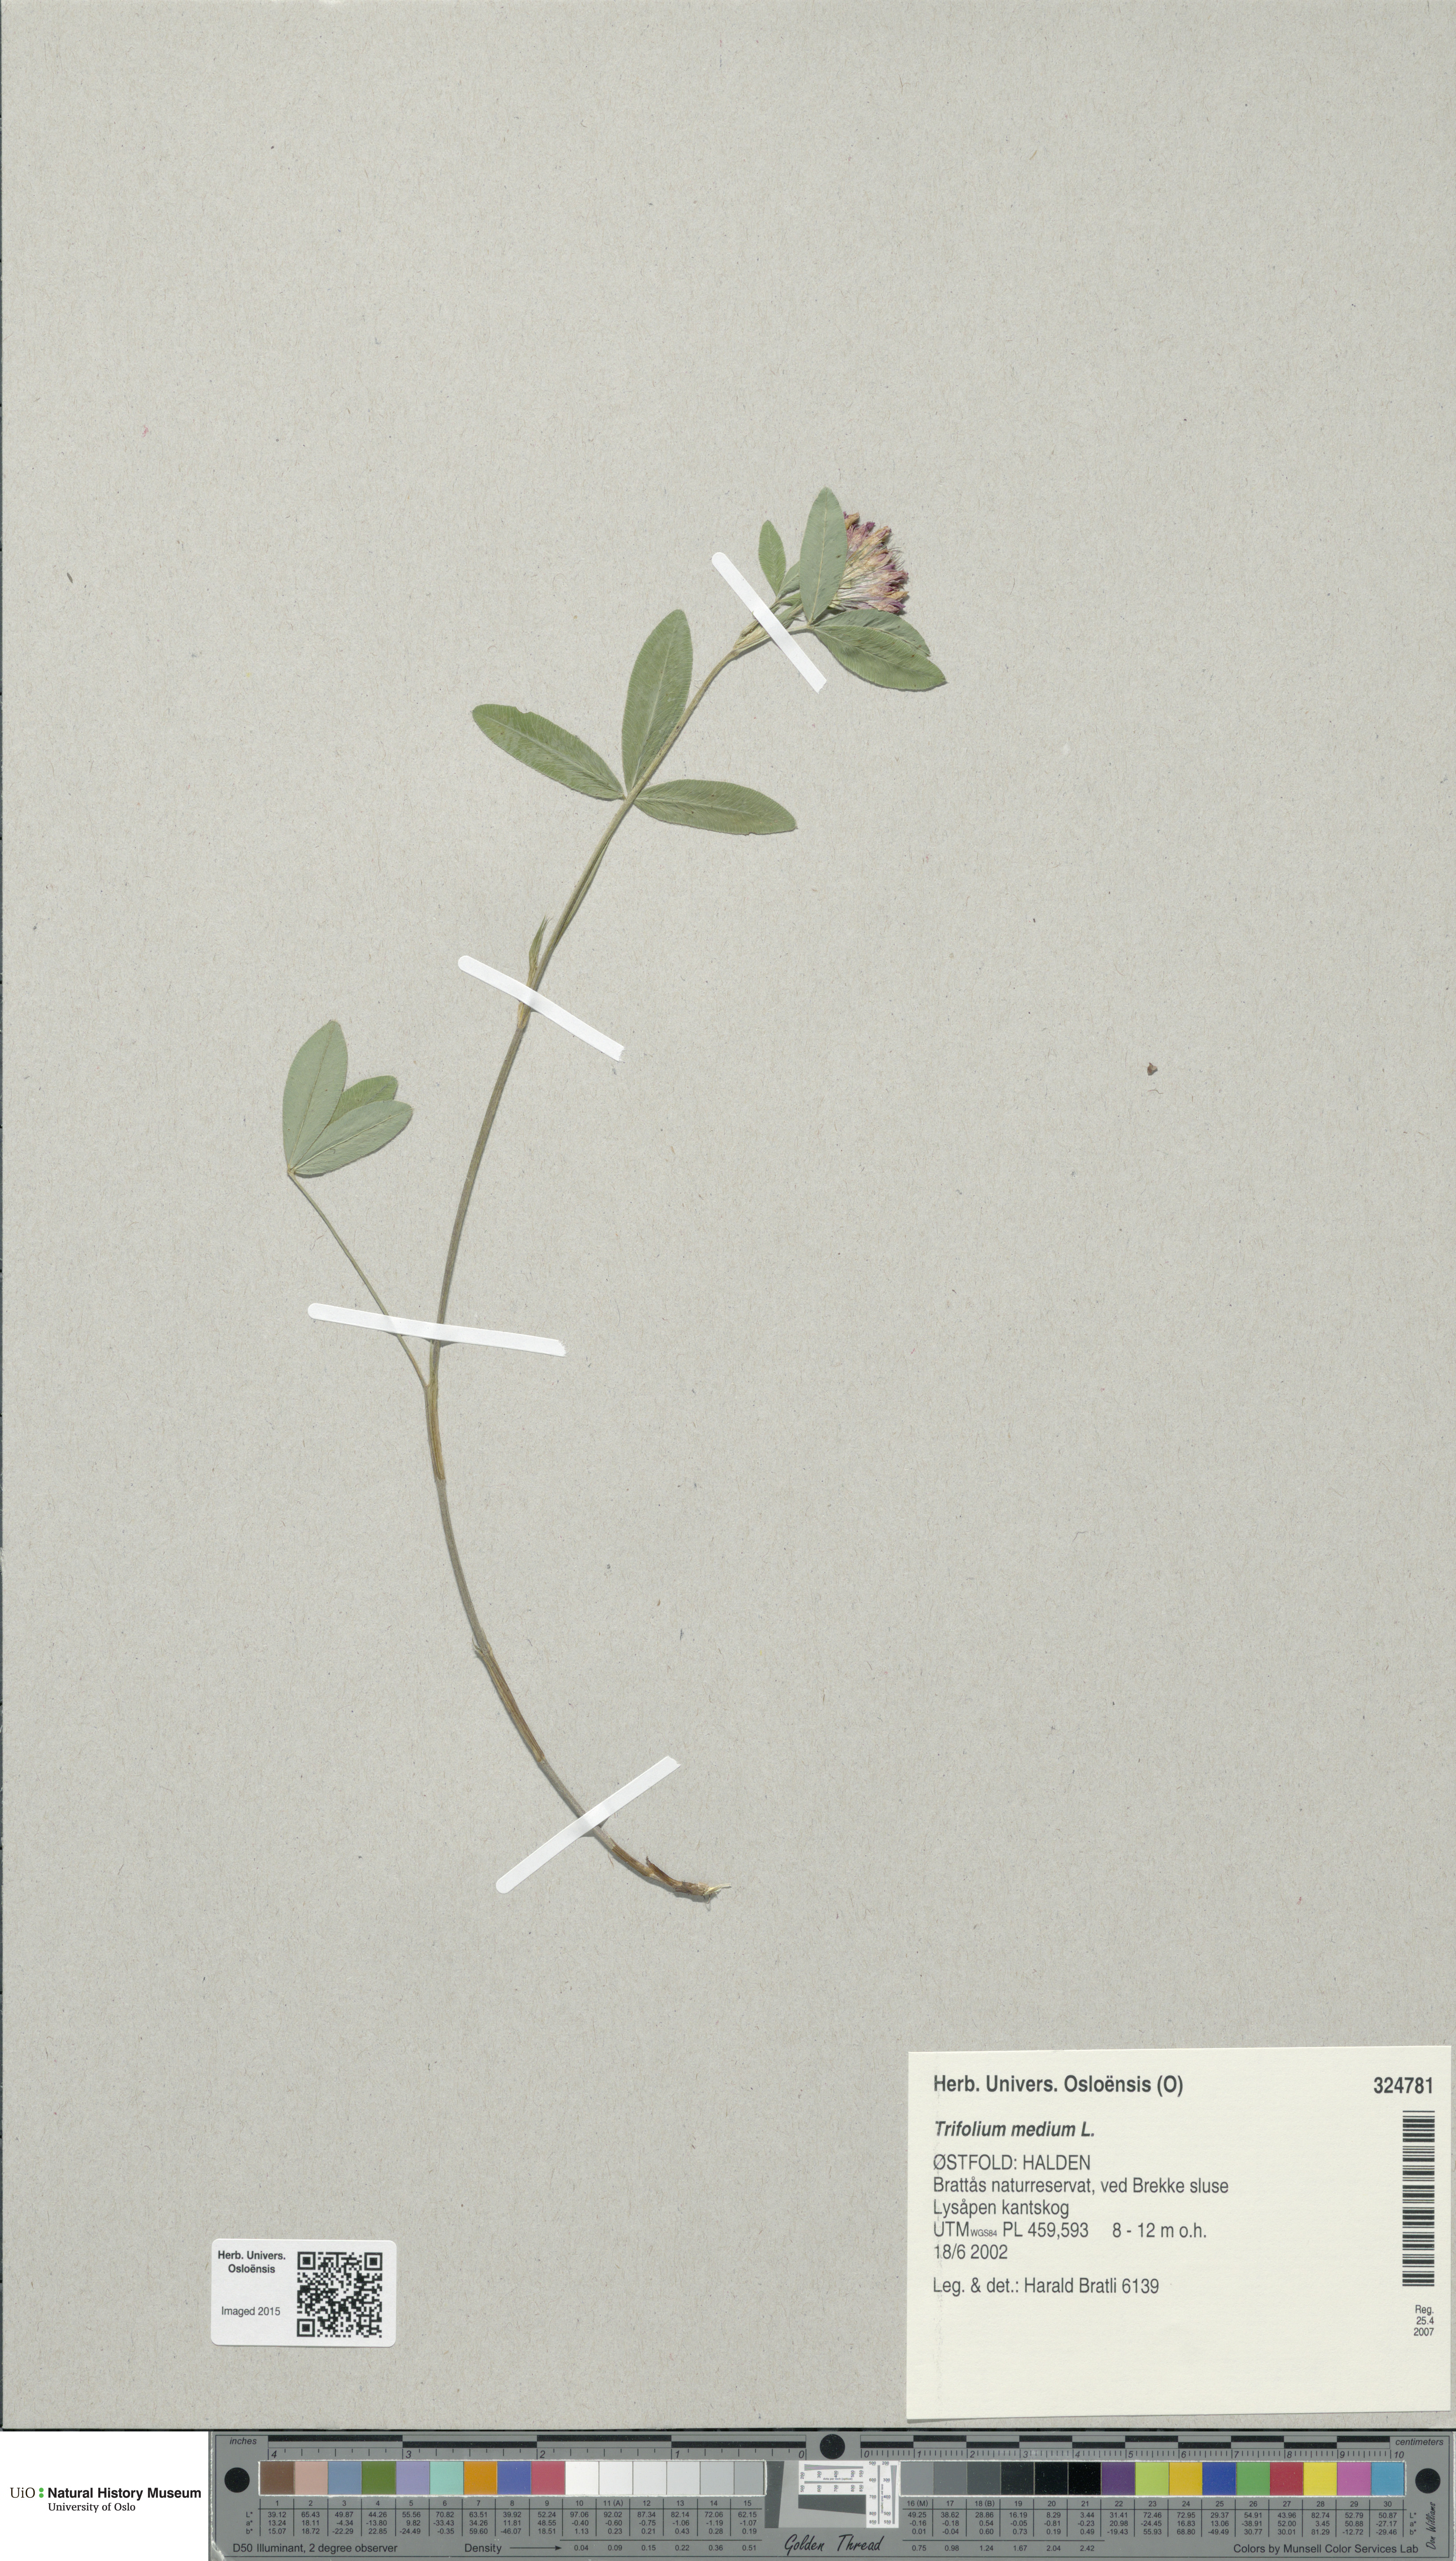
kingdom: Plantae
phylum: Tracheophyta
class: Magnoliopsida
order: Fabales
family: Fabaceae
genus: Trifolium
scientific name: Trifolium medium
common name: Zigzag clover
